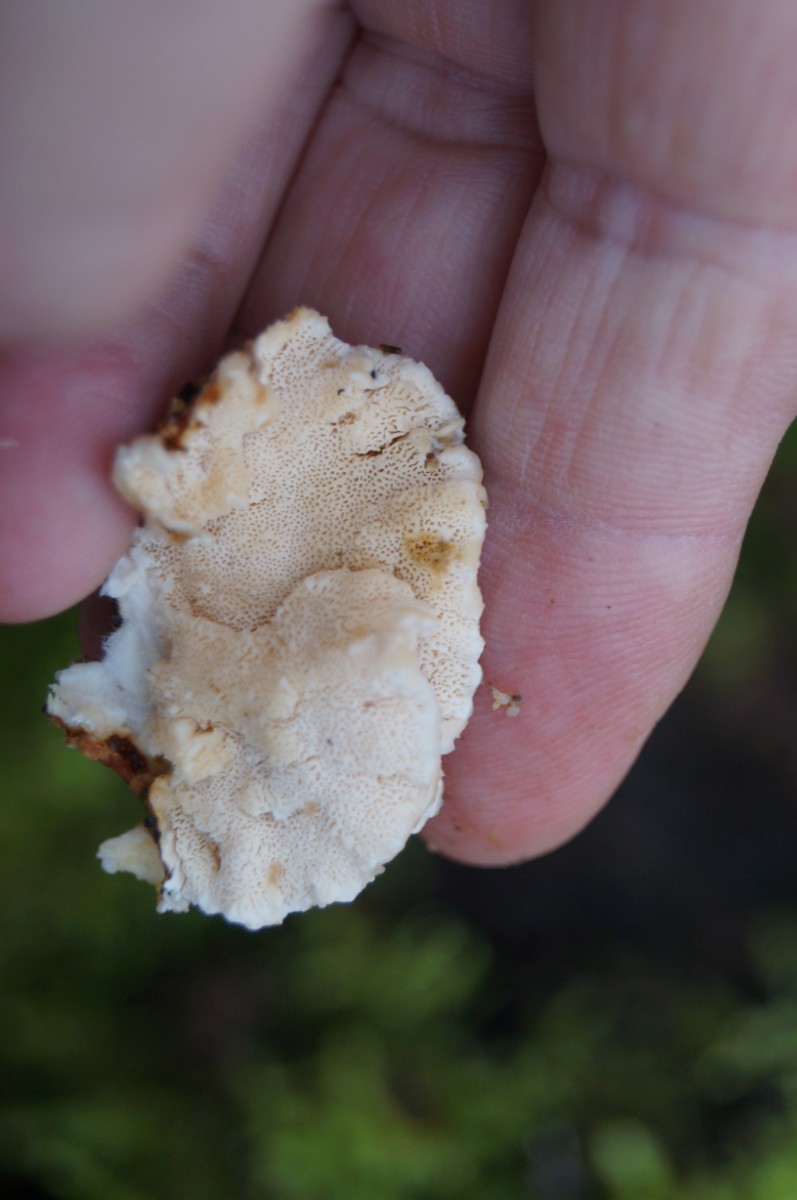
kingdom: Fungi
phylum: Basidiomycota
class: Agaricomycetes
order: Polyporales
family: Polyporaceae
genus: Trametes
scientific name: Trametes ochracea
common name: bæltet læderporesvamp
